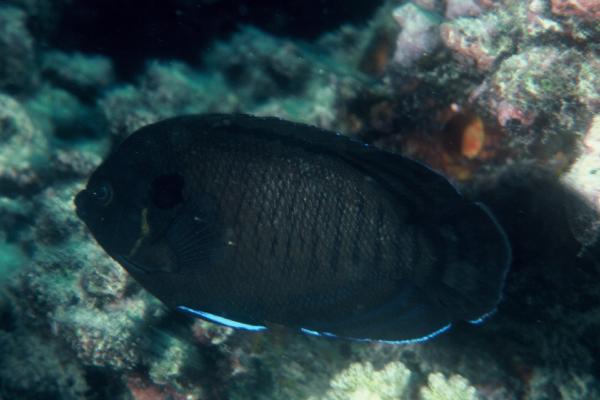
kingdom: Animalia
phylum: Chordata
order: Perciformes
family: Pomacanthidae
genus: Centropyge
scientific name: Centropyge multispinis
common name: Many-spined angelfish
